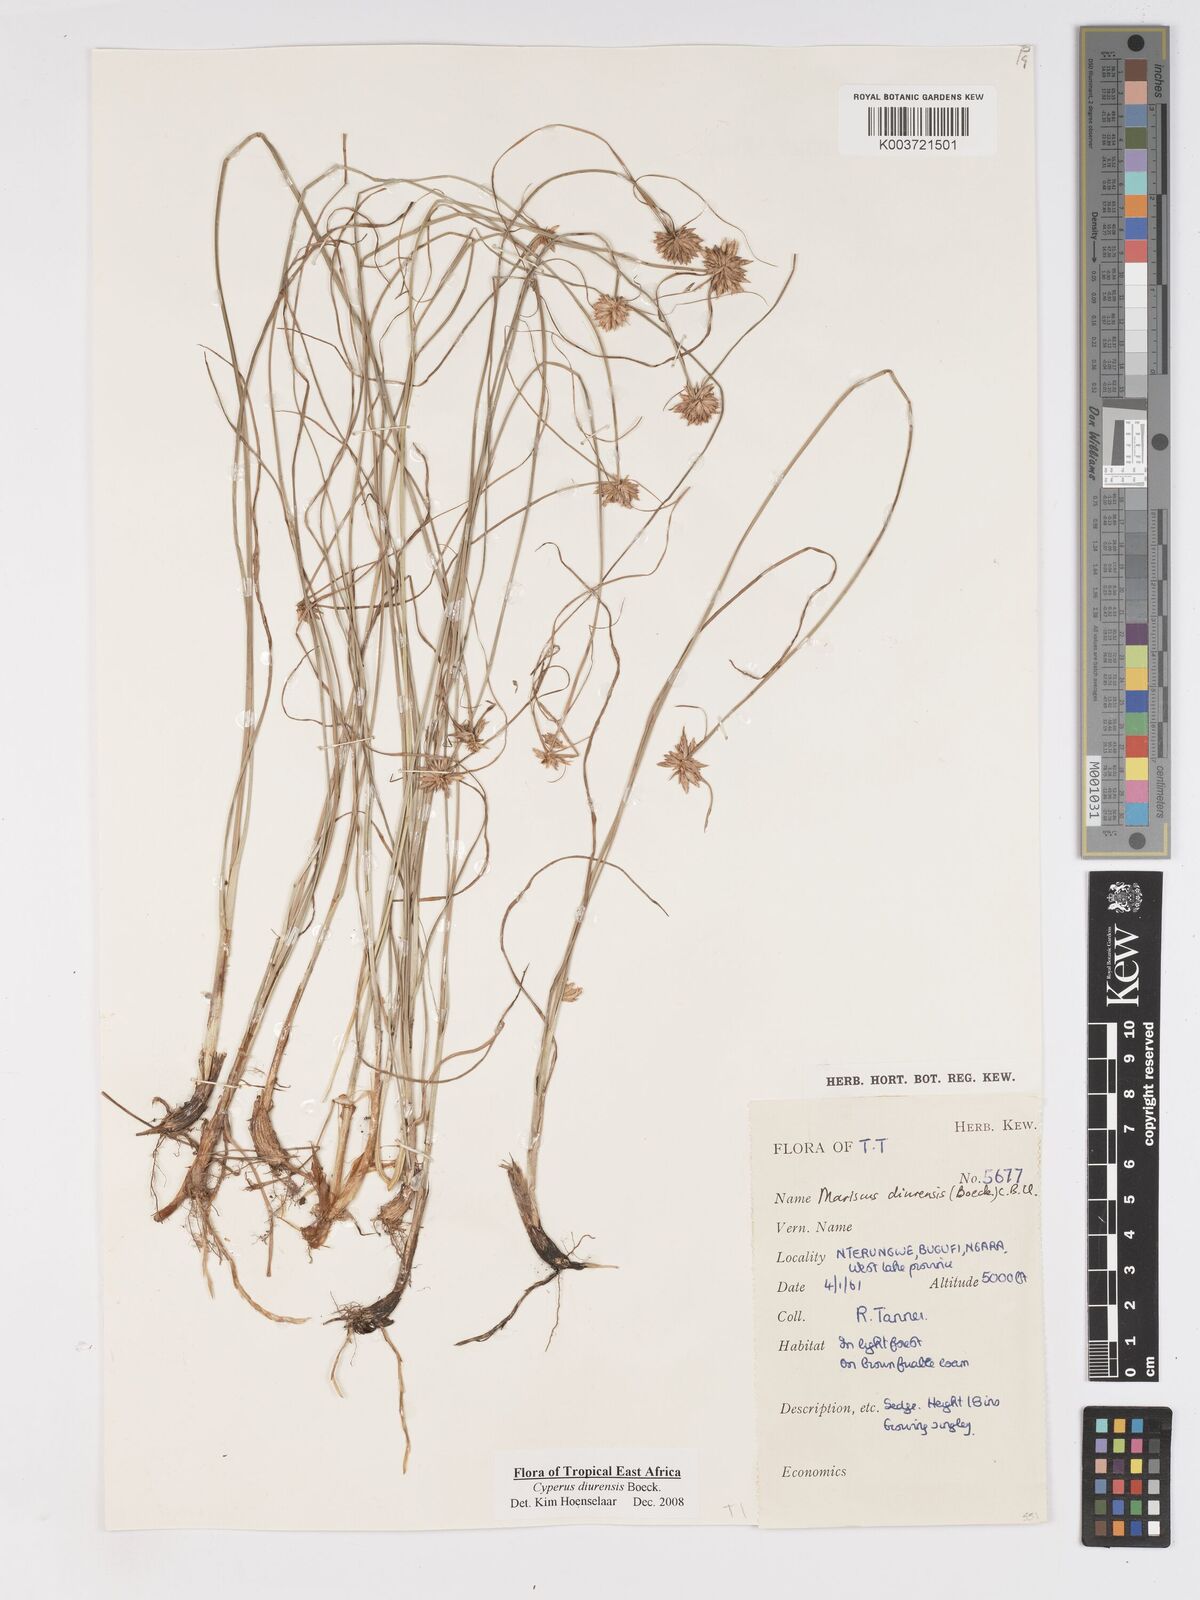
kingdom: Plantae
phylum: Tracheophyta
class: Liliopsida
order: Poales
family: Cyperaceae
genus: Cyperus
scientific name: Cyperus diurensis
